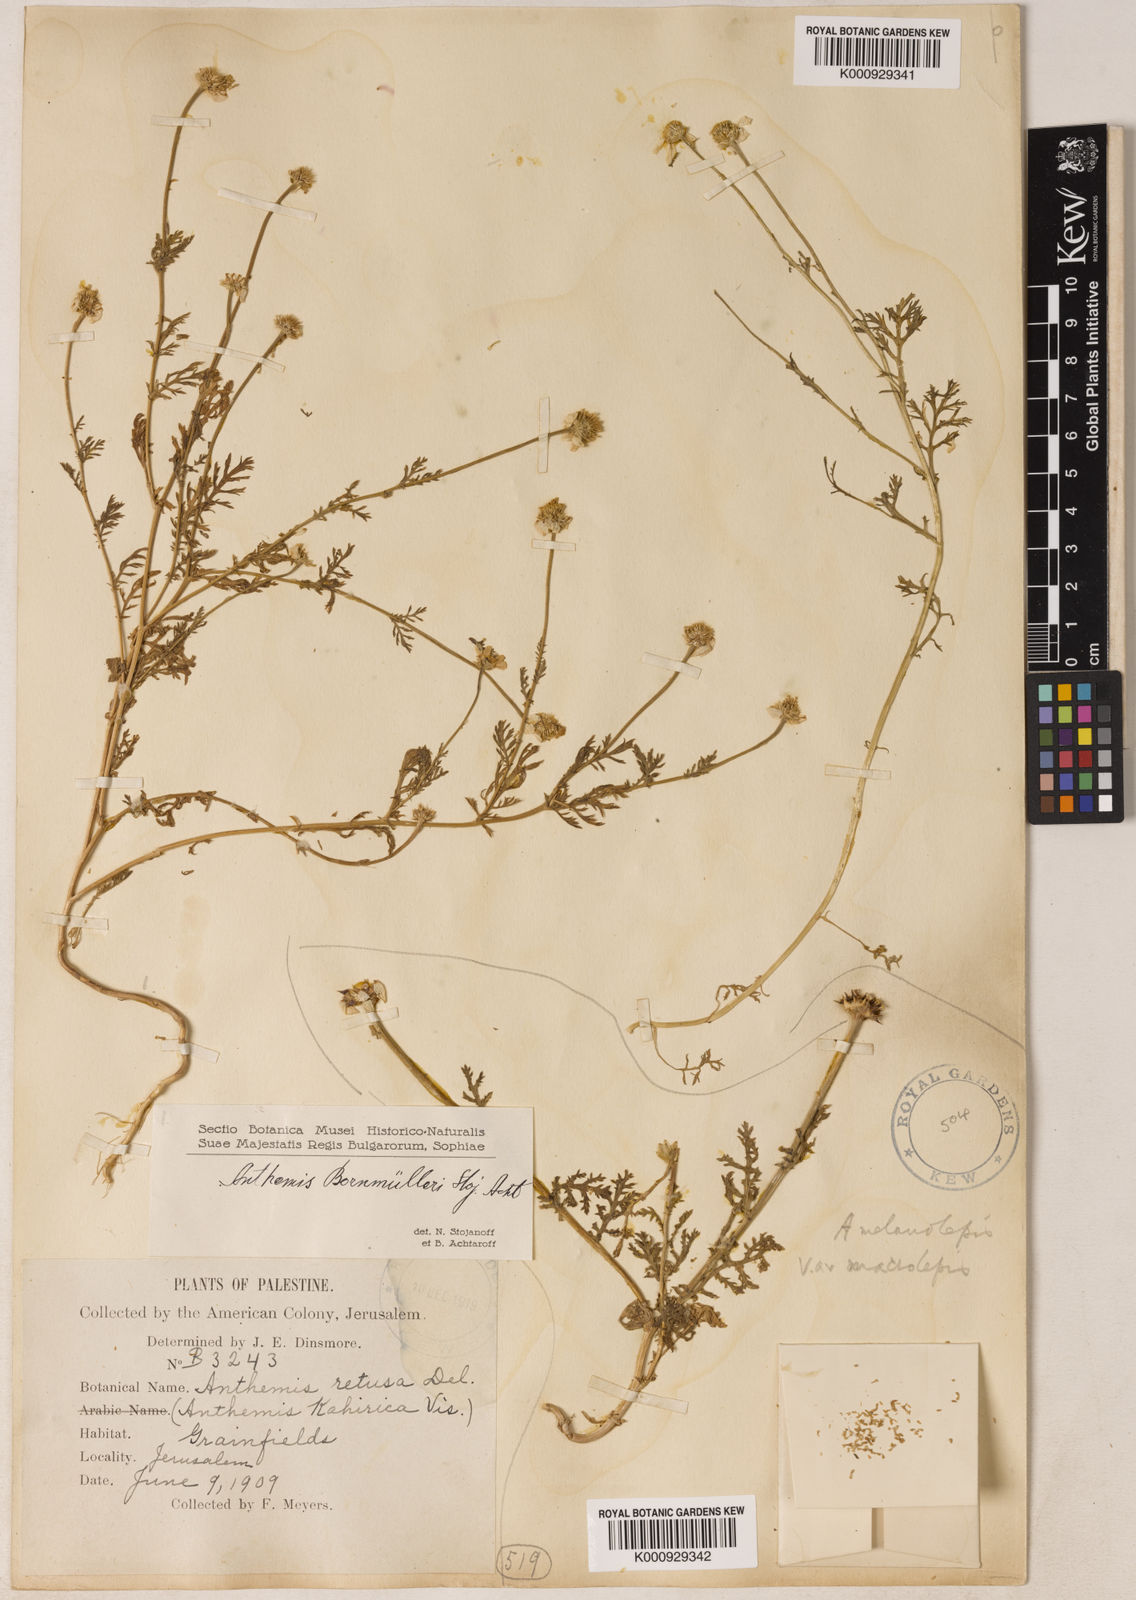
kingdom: Plantae
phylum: Tracheophyta
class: Magnoliopsida
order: Asterales
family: Asteraceae
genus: Anthemis
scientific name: Anthemis bornmuelleri
